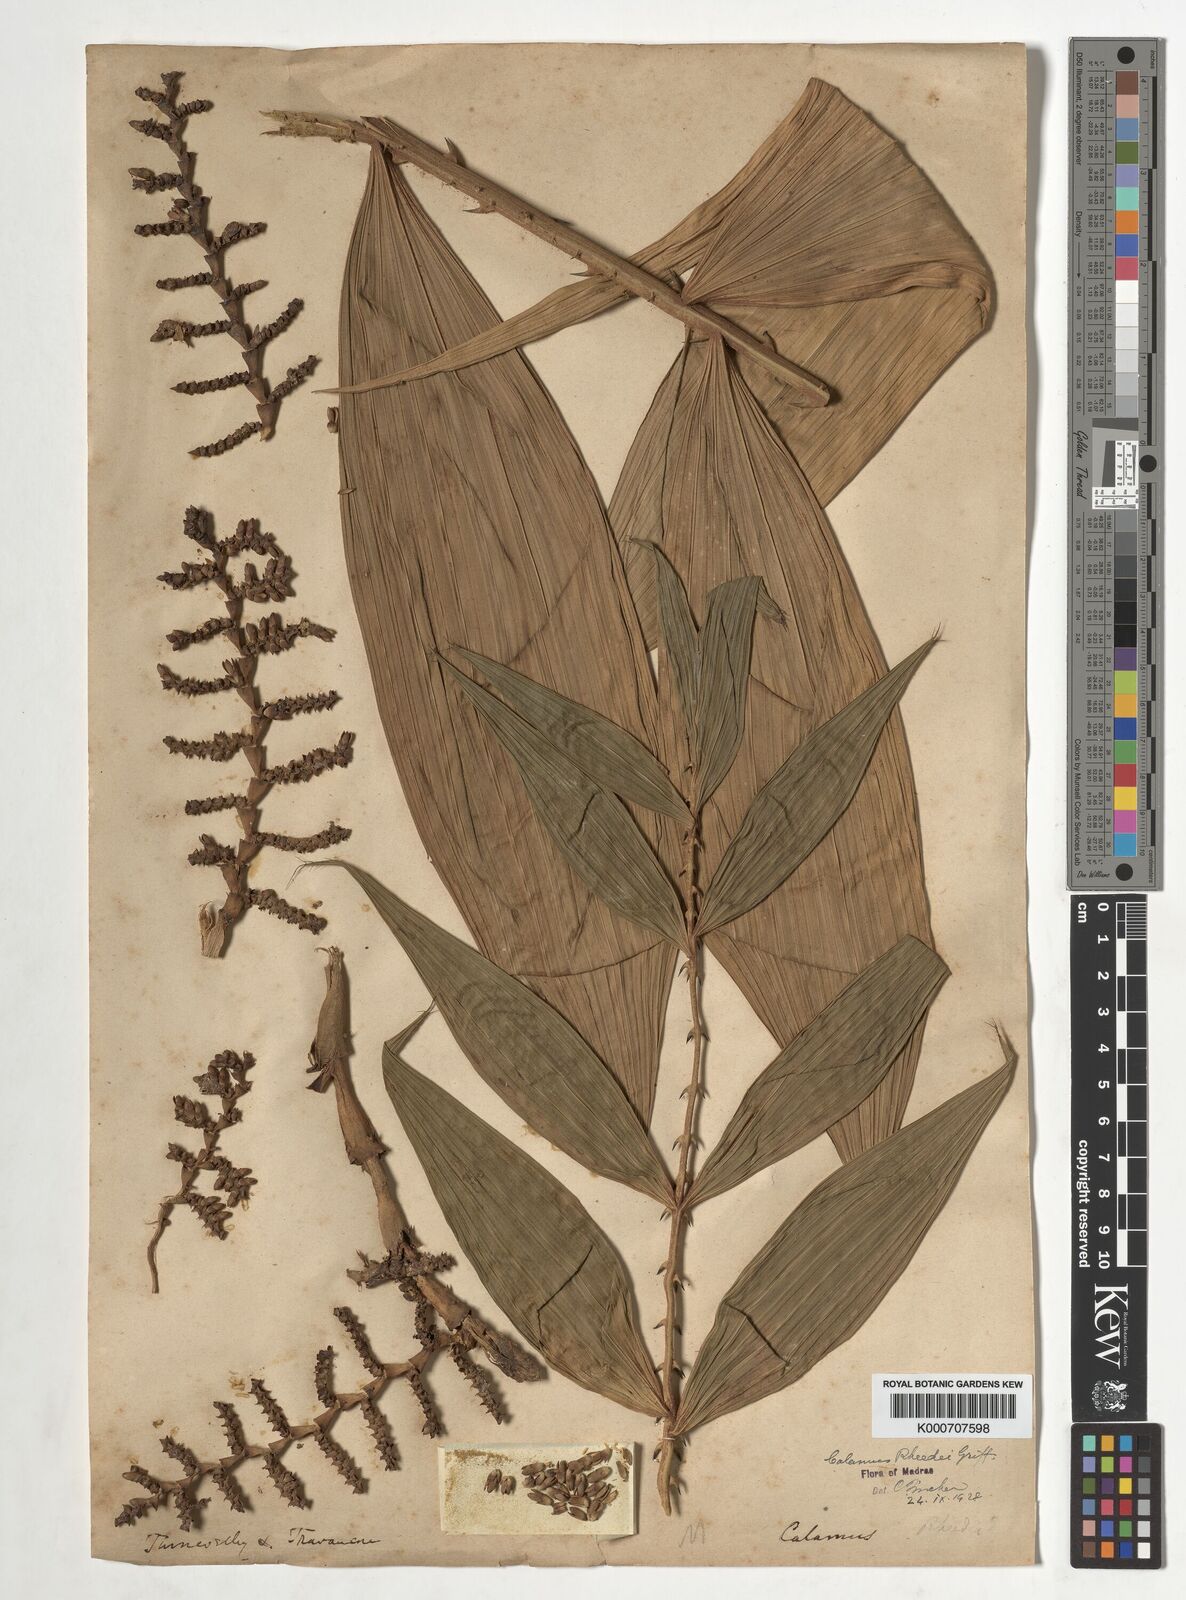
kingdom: Plantae
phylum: Tracheophyta
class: Liliopsida
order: Arecales
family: Arecaceae
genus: Calamus
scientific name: Calamus rheedei
